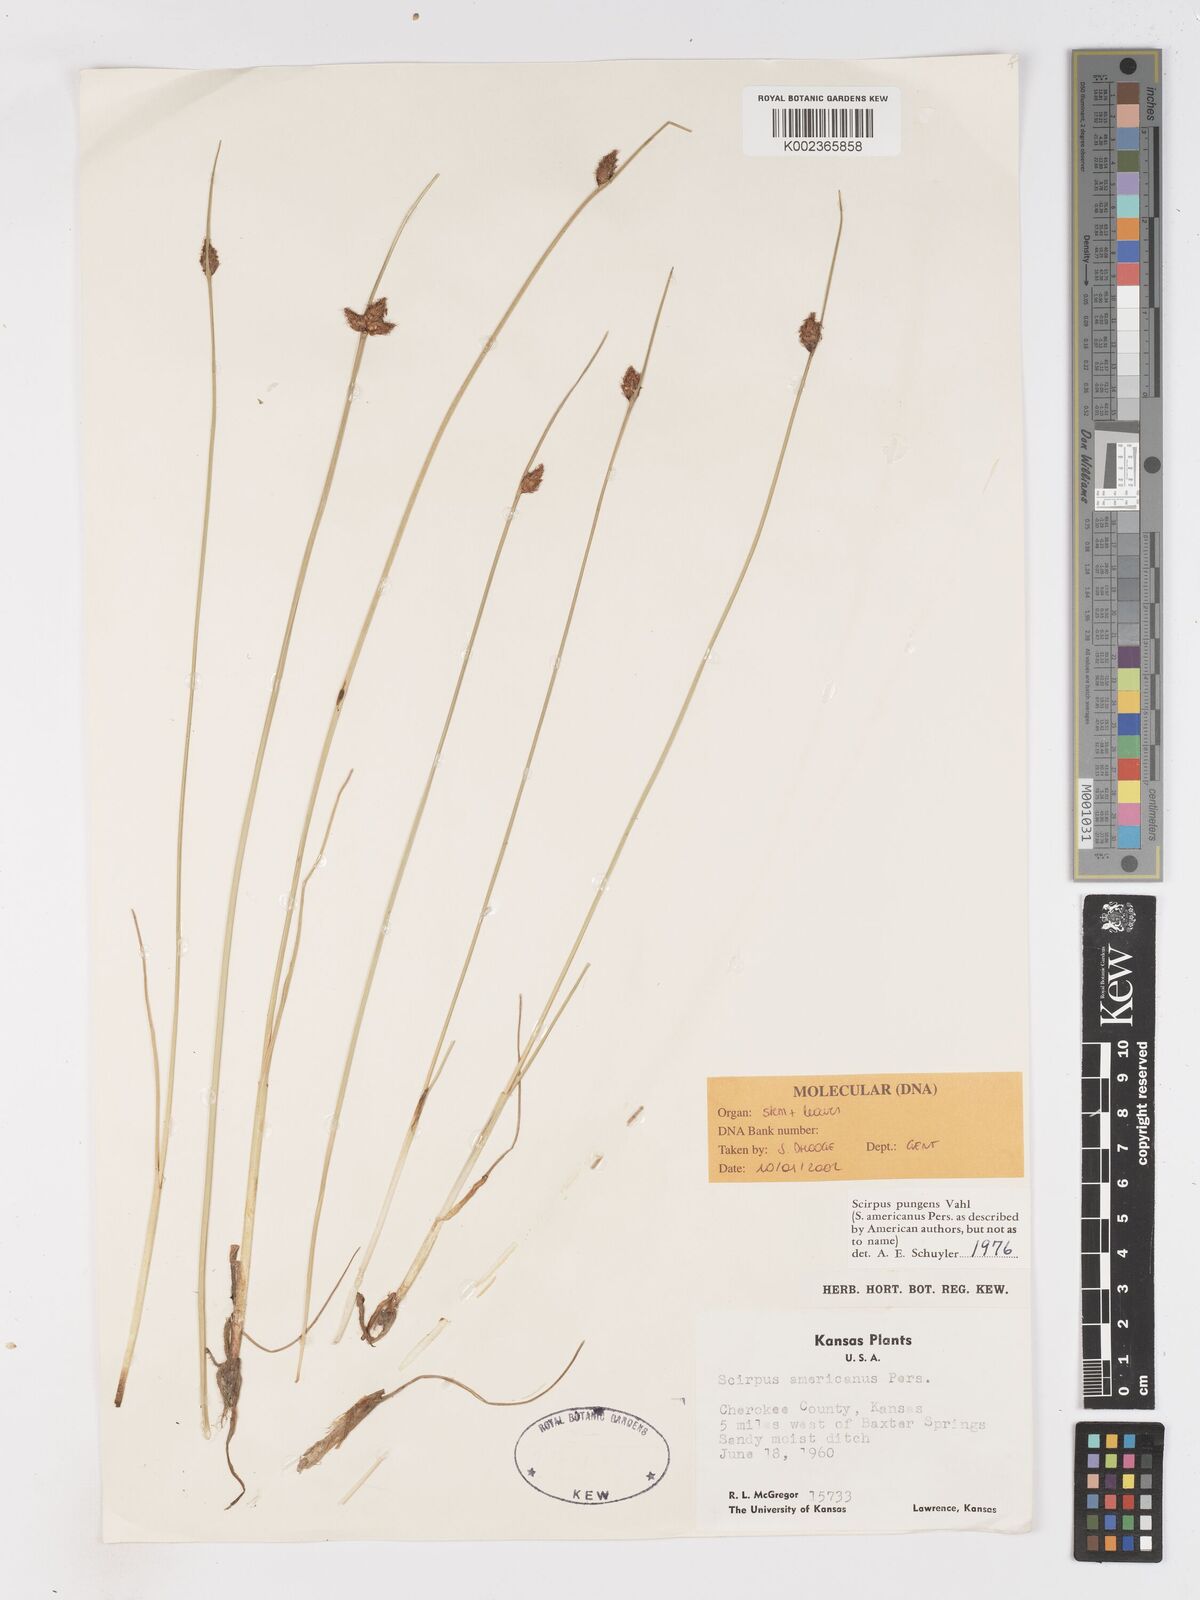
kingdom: Plantae
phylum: Tracheophyta
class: Liliopsida
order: Poales
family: Cyperaceae
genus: Schoenoplectus
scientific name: Schoenoplectus pungens
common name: Sharp club-rush
